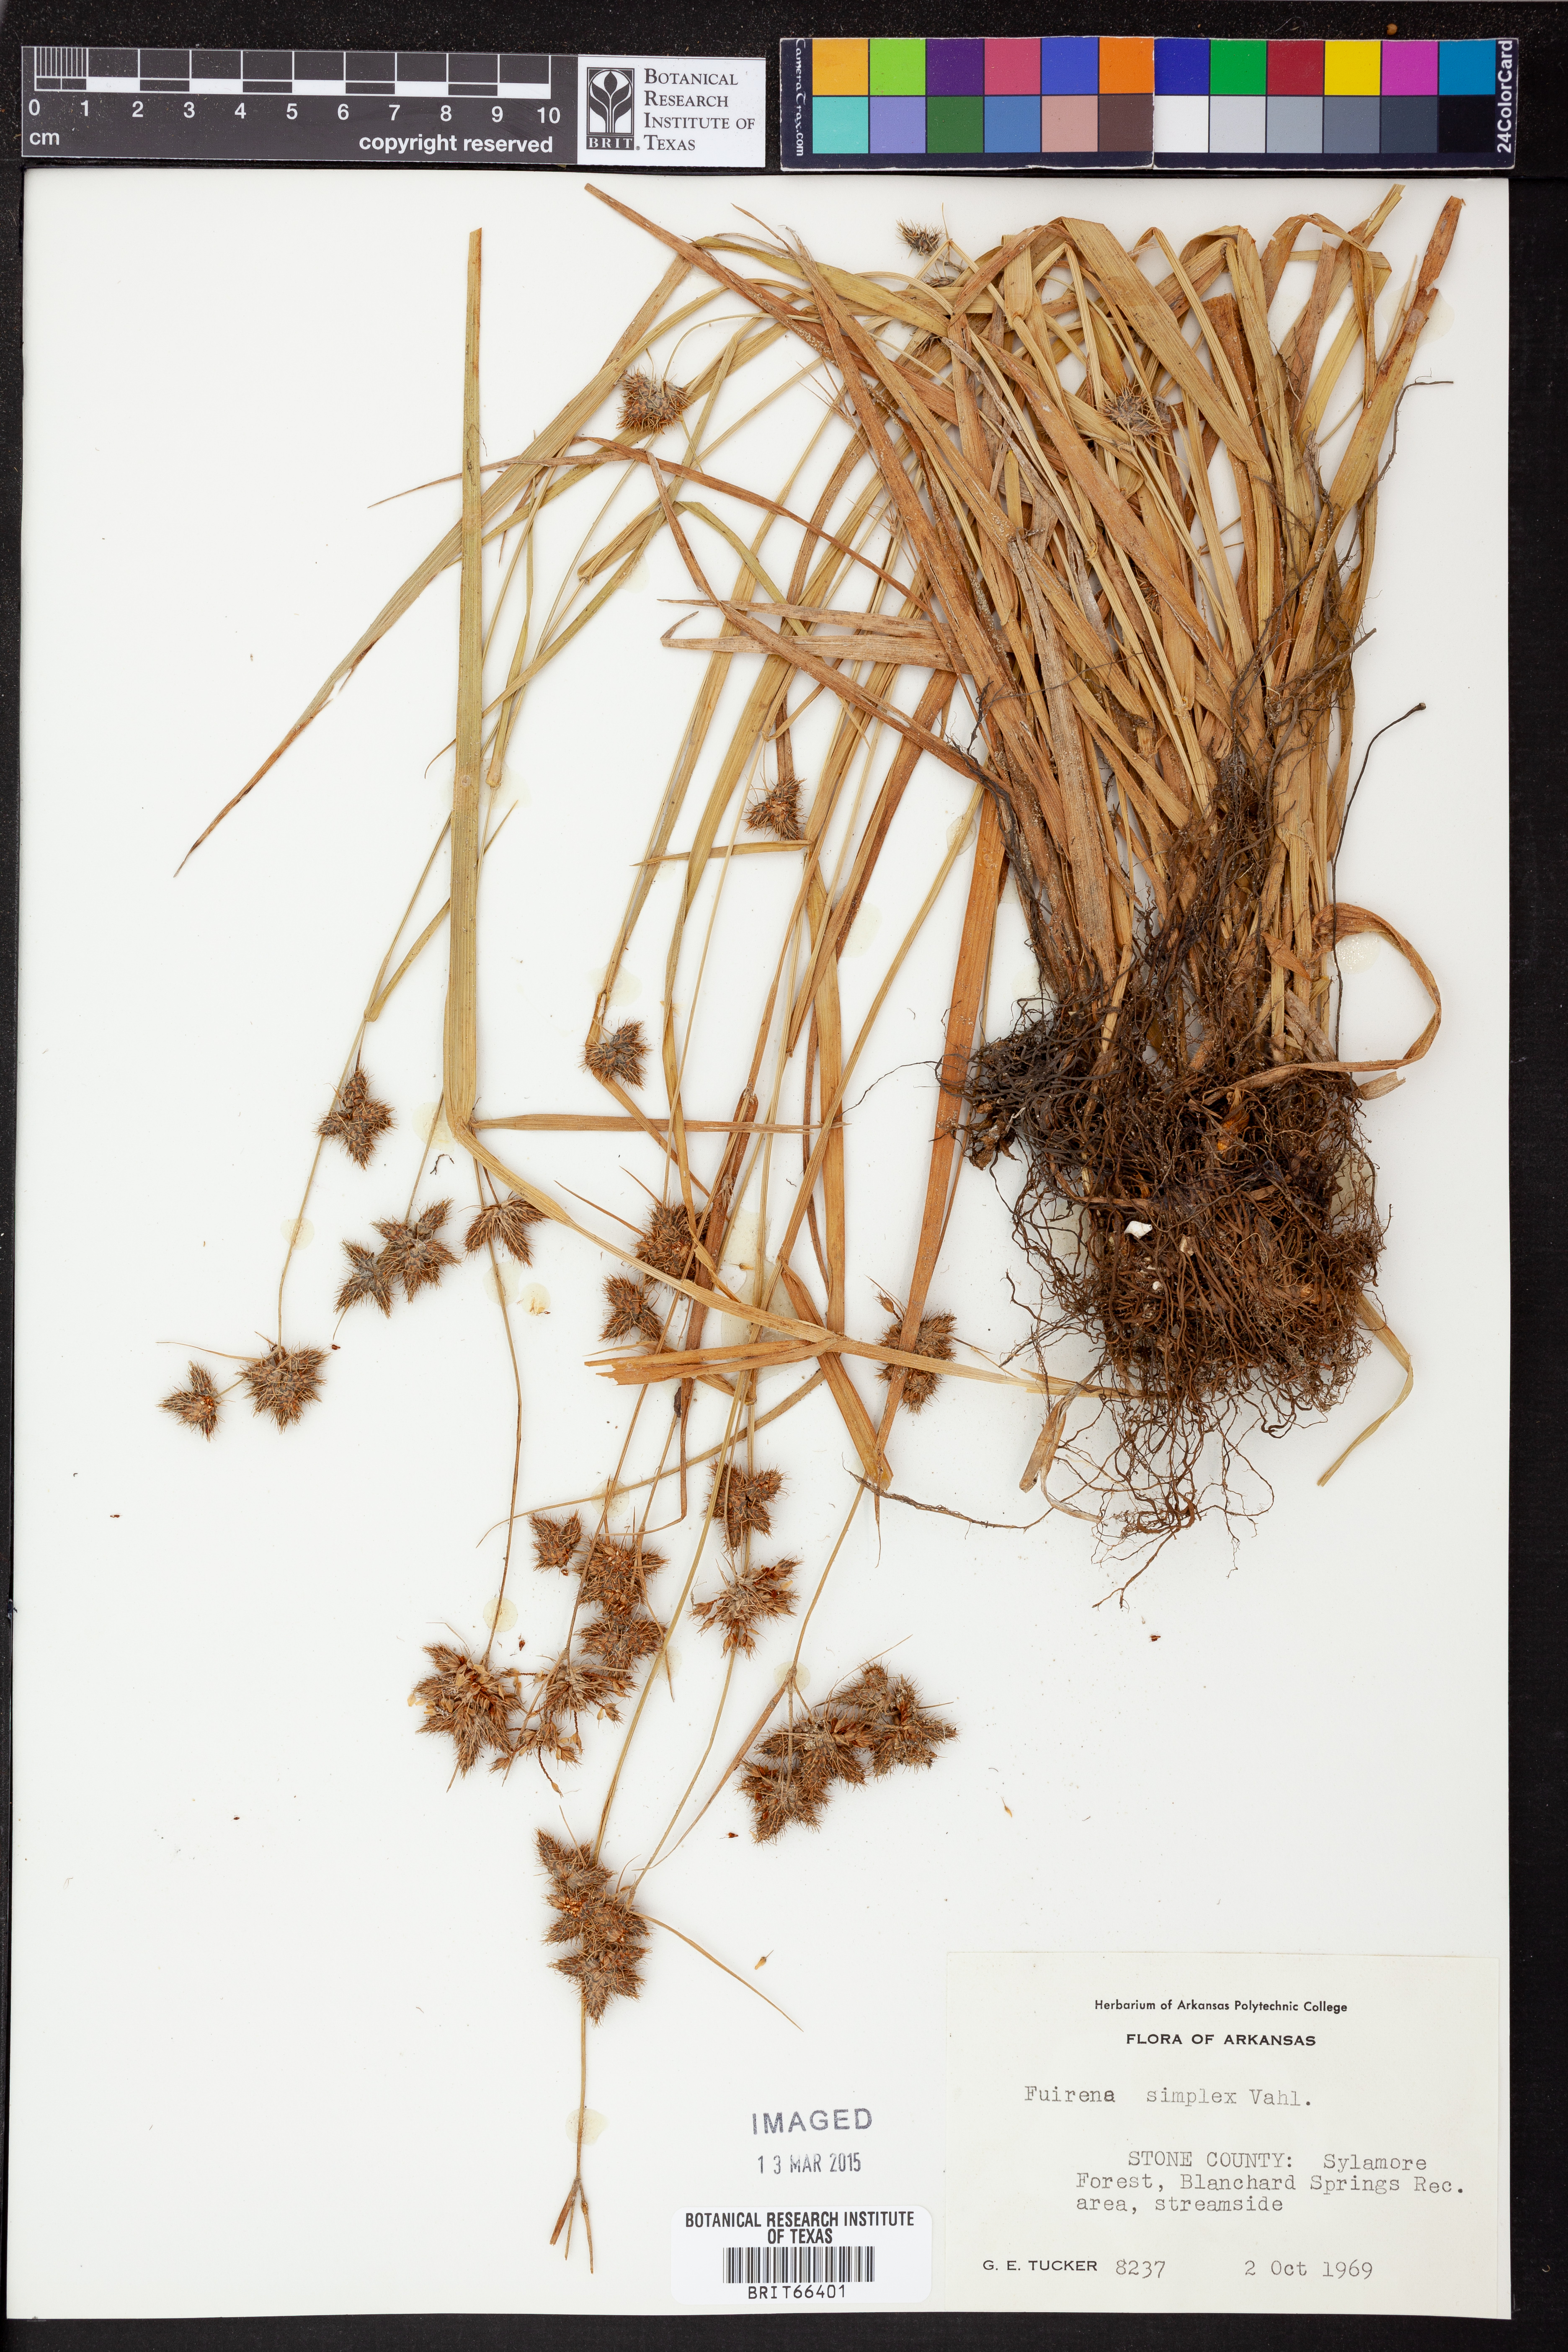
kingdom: Plantae
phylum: Tracheophyta
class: Liliopsida
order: Poales
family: Cyperaceae
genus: Fuirena
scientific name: Fuirena simplex
